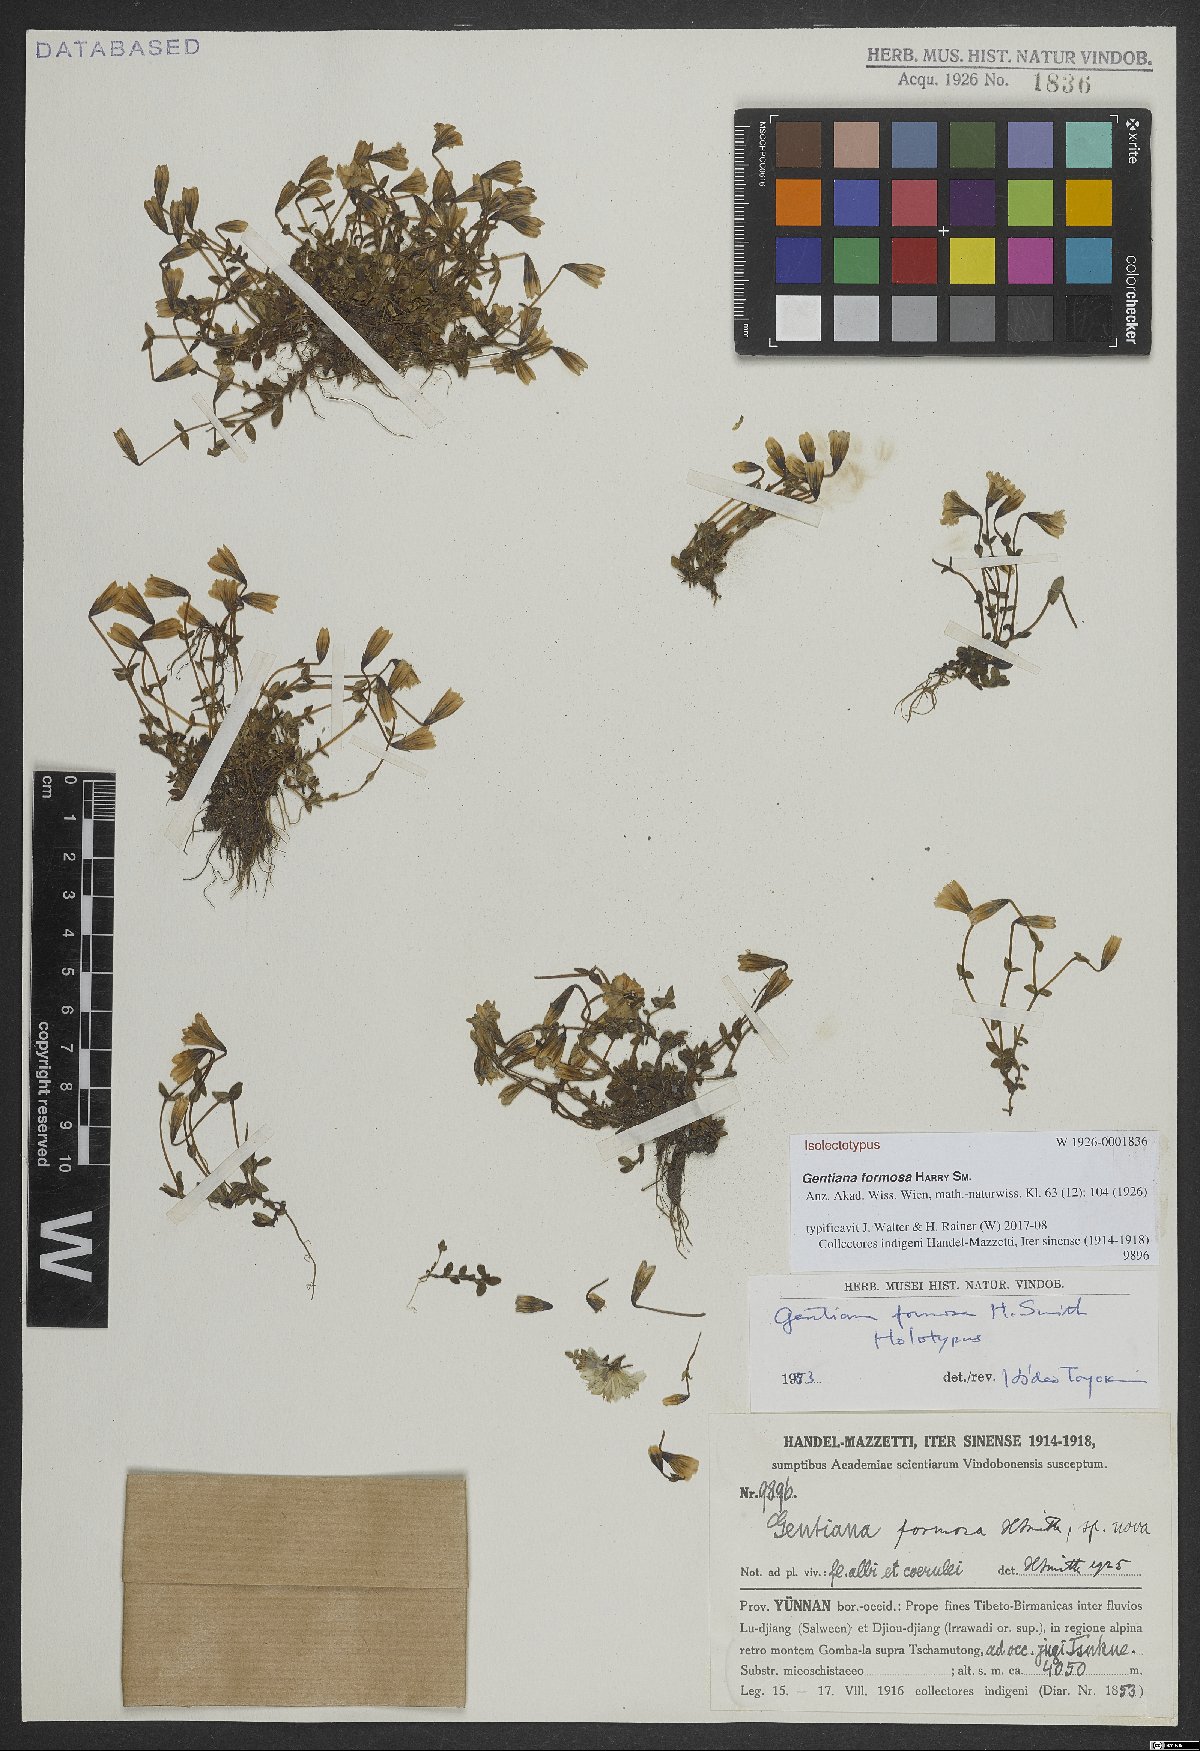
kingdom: Plantae
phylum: Tracheophyta
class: Magnoliopsida
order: Gentianales
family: Gentianaceae
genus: Gentiana
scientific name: Gentiana formosa
